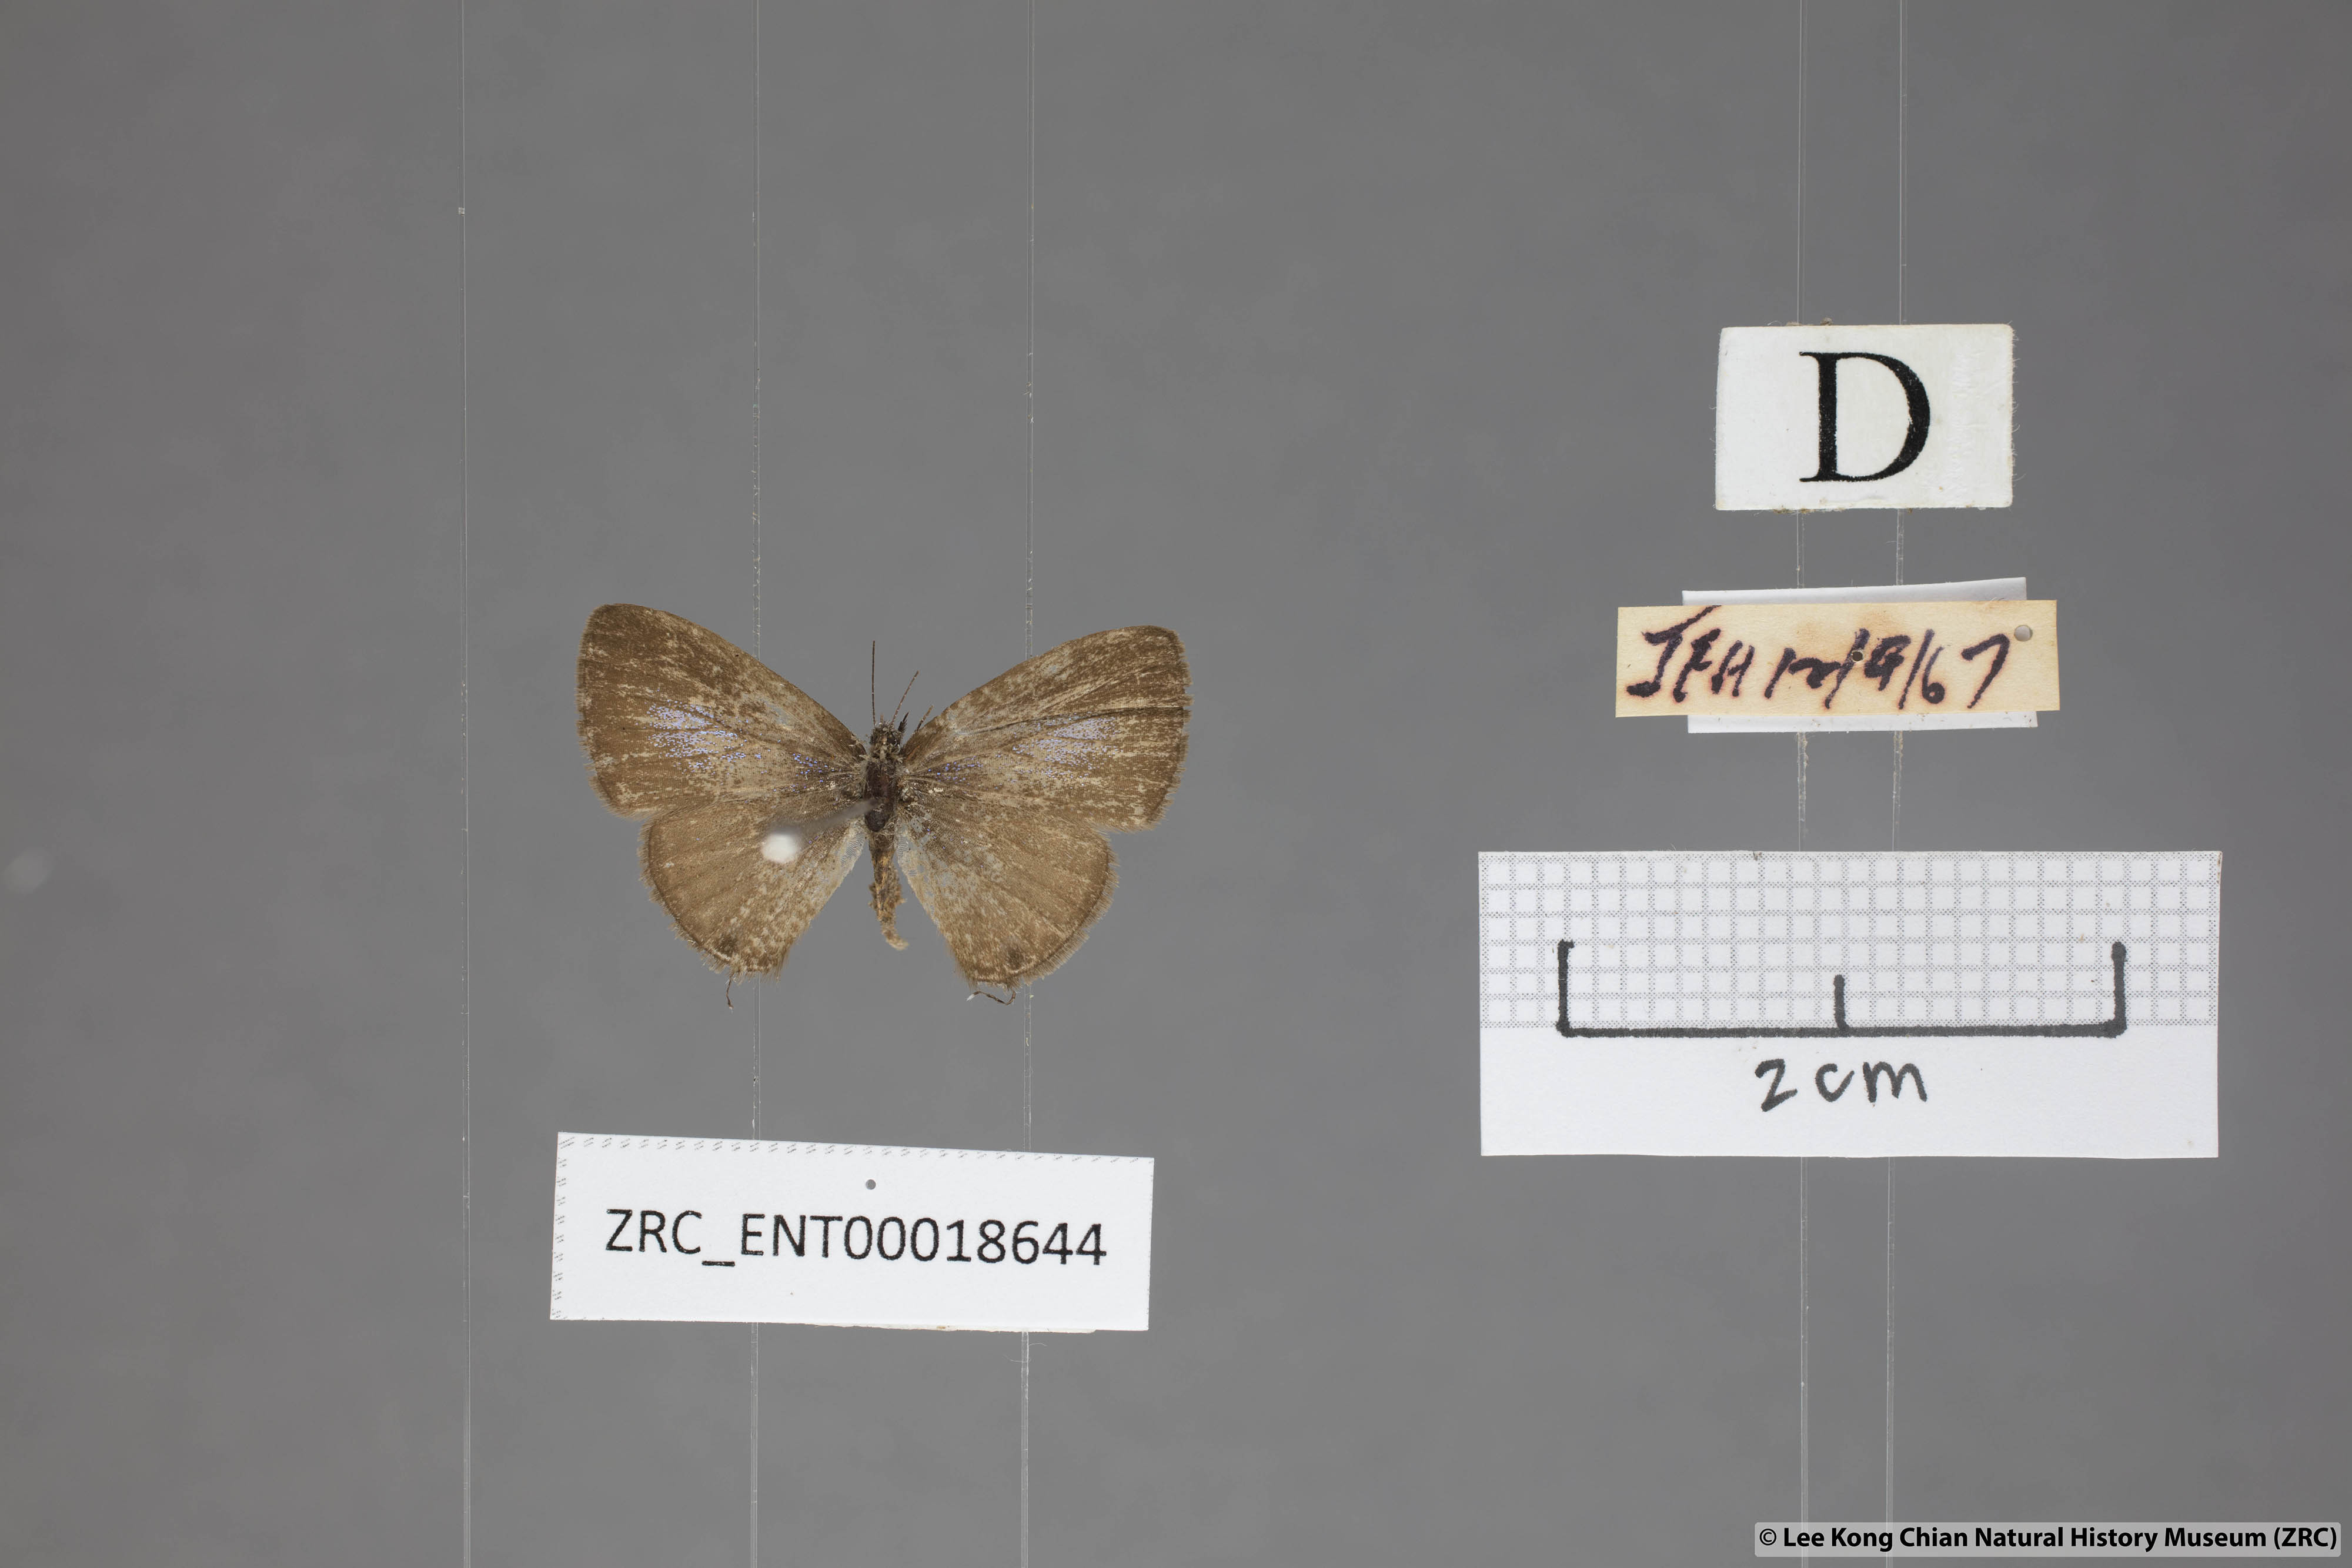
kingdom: Animalia
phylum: Arthropoda
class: Insecta
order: Lepidoptera
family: Lycaenidae
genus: Prosotas
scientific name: Prosotas nora
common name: Common line blue
